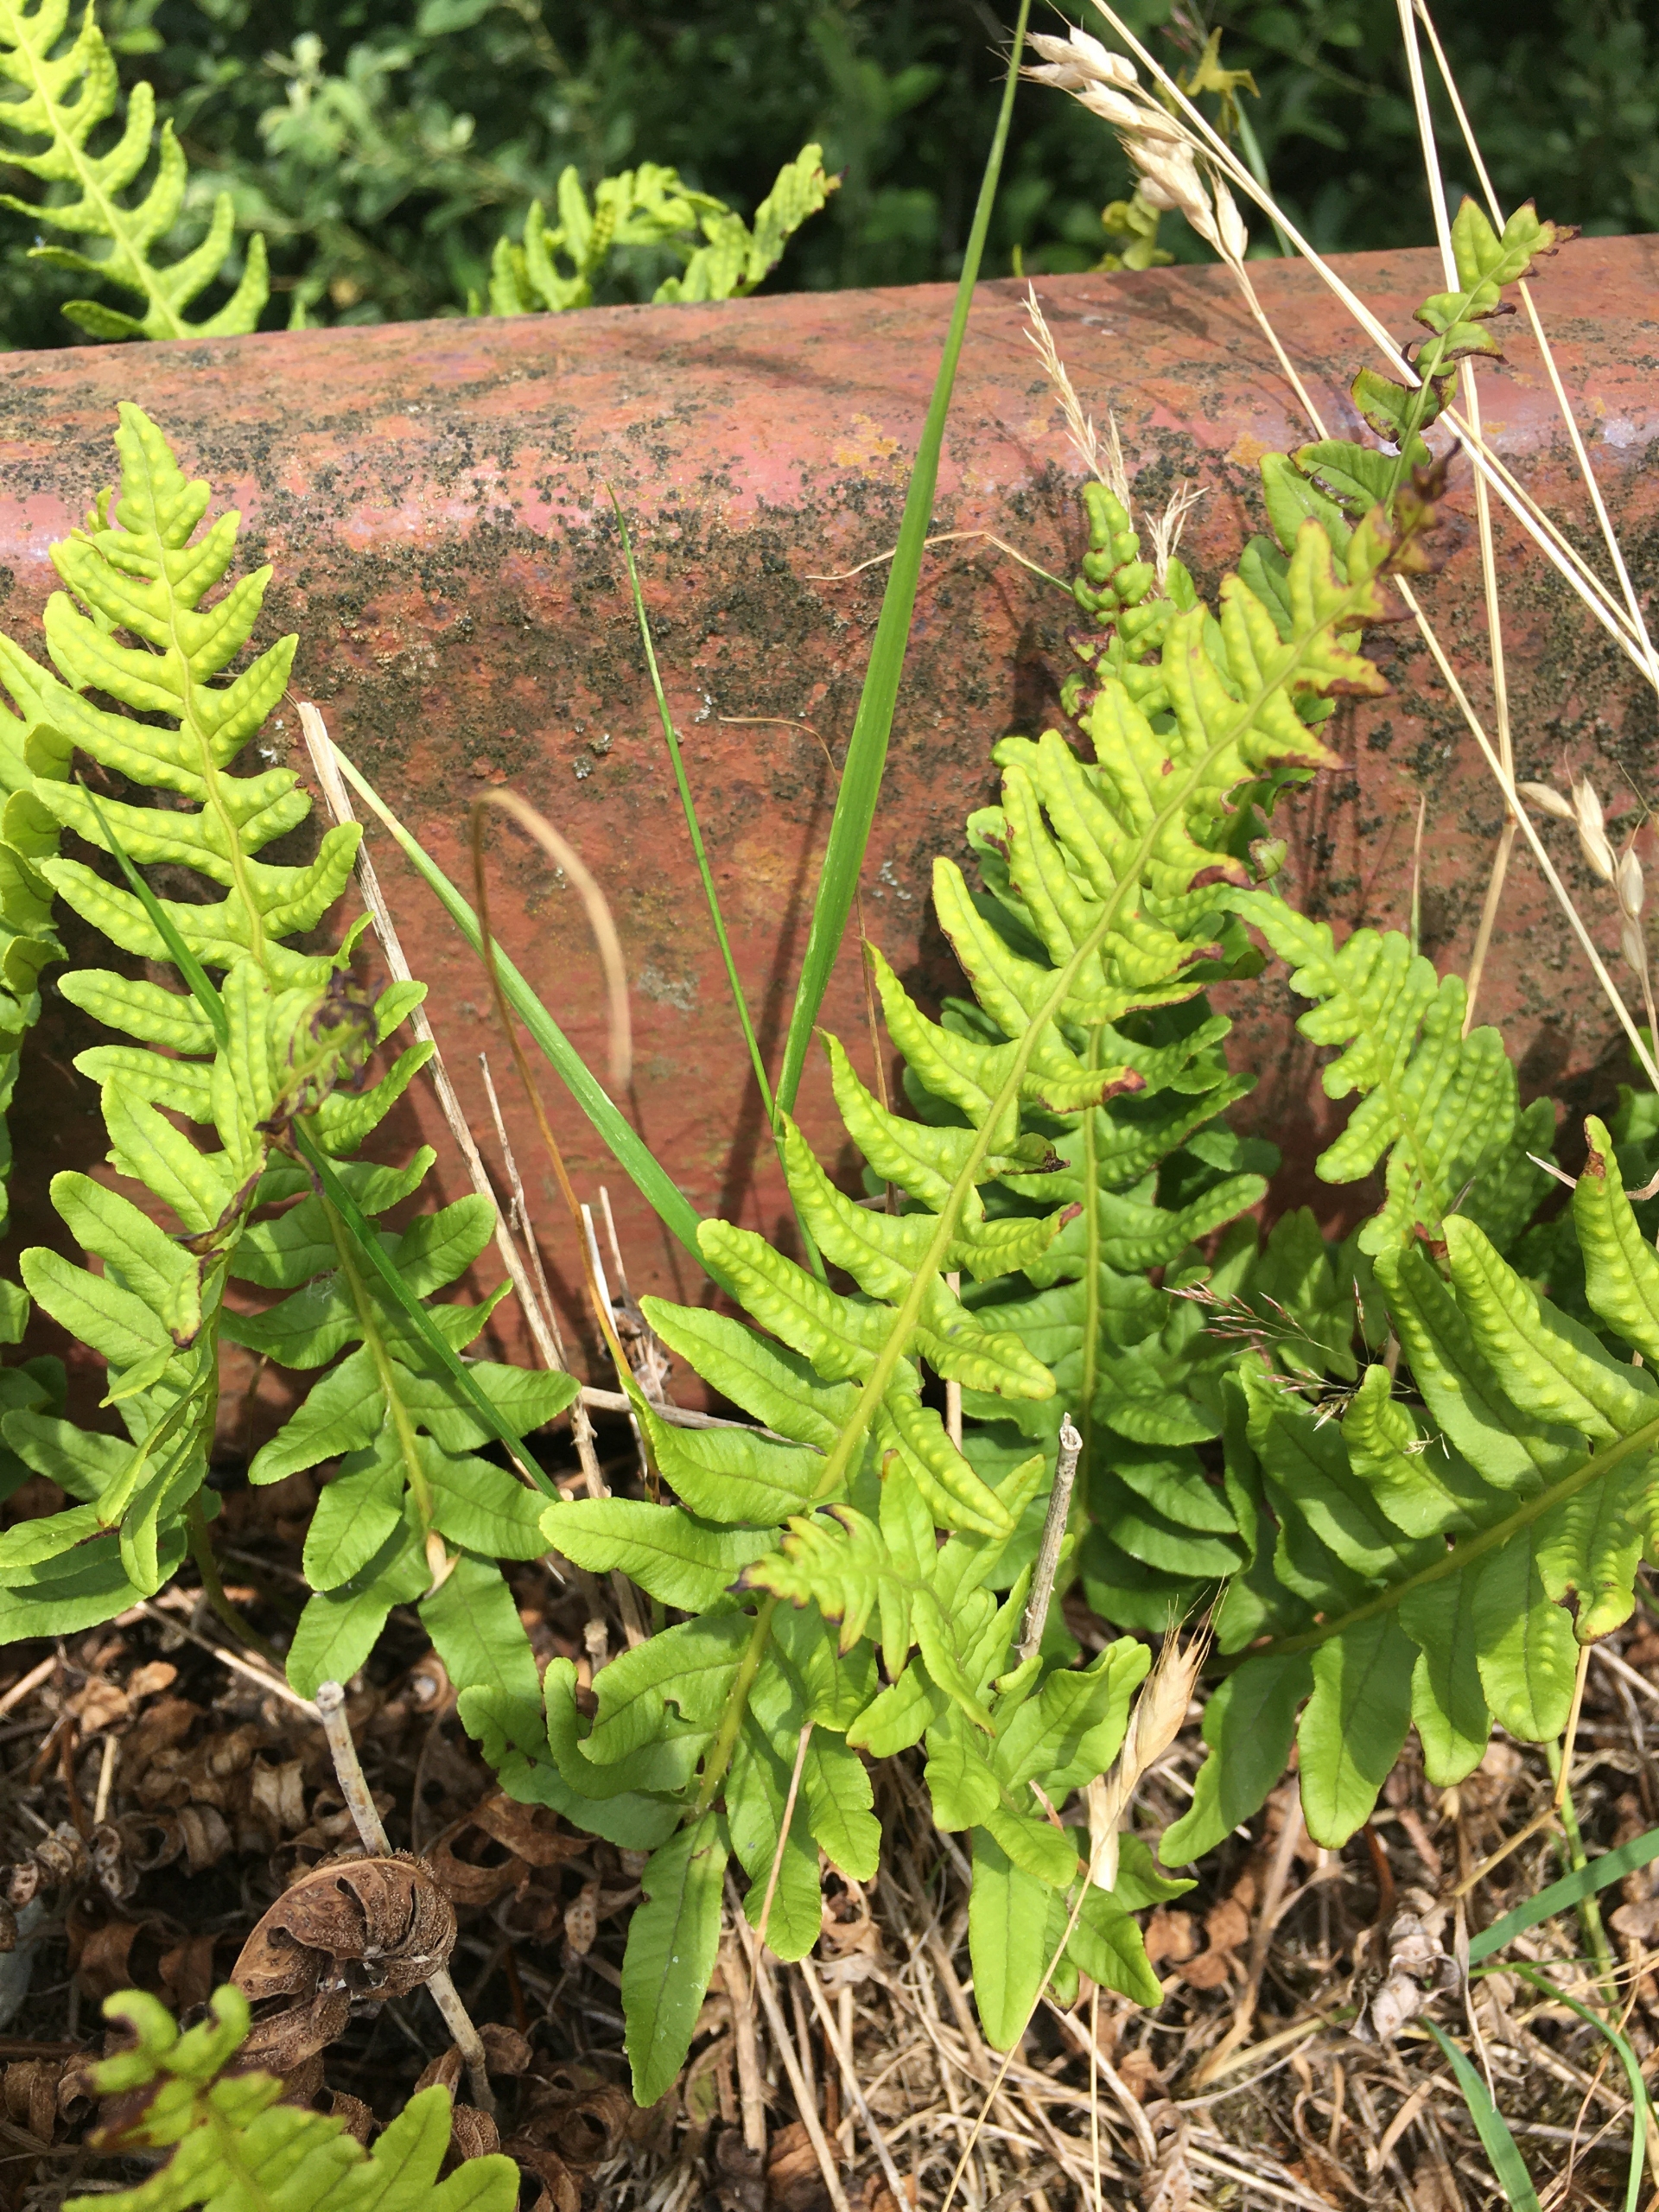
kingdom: Plantae
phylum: Tracheophyta
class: Polypodiopsida
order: Polypodiales
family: Polypodiaceae
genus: Polypodium
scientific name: Polypodium vulgare
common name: Almindelig engelsød
